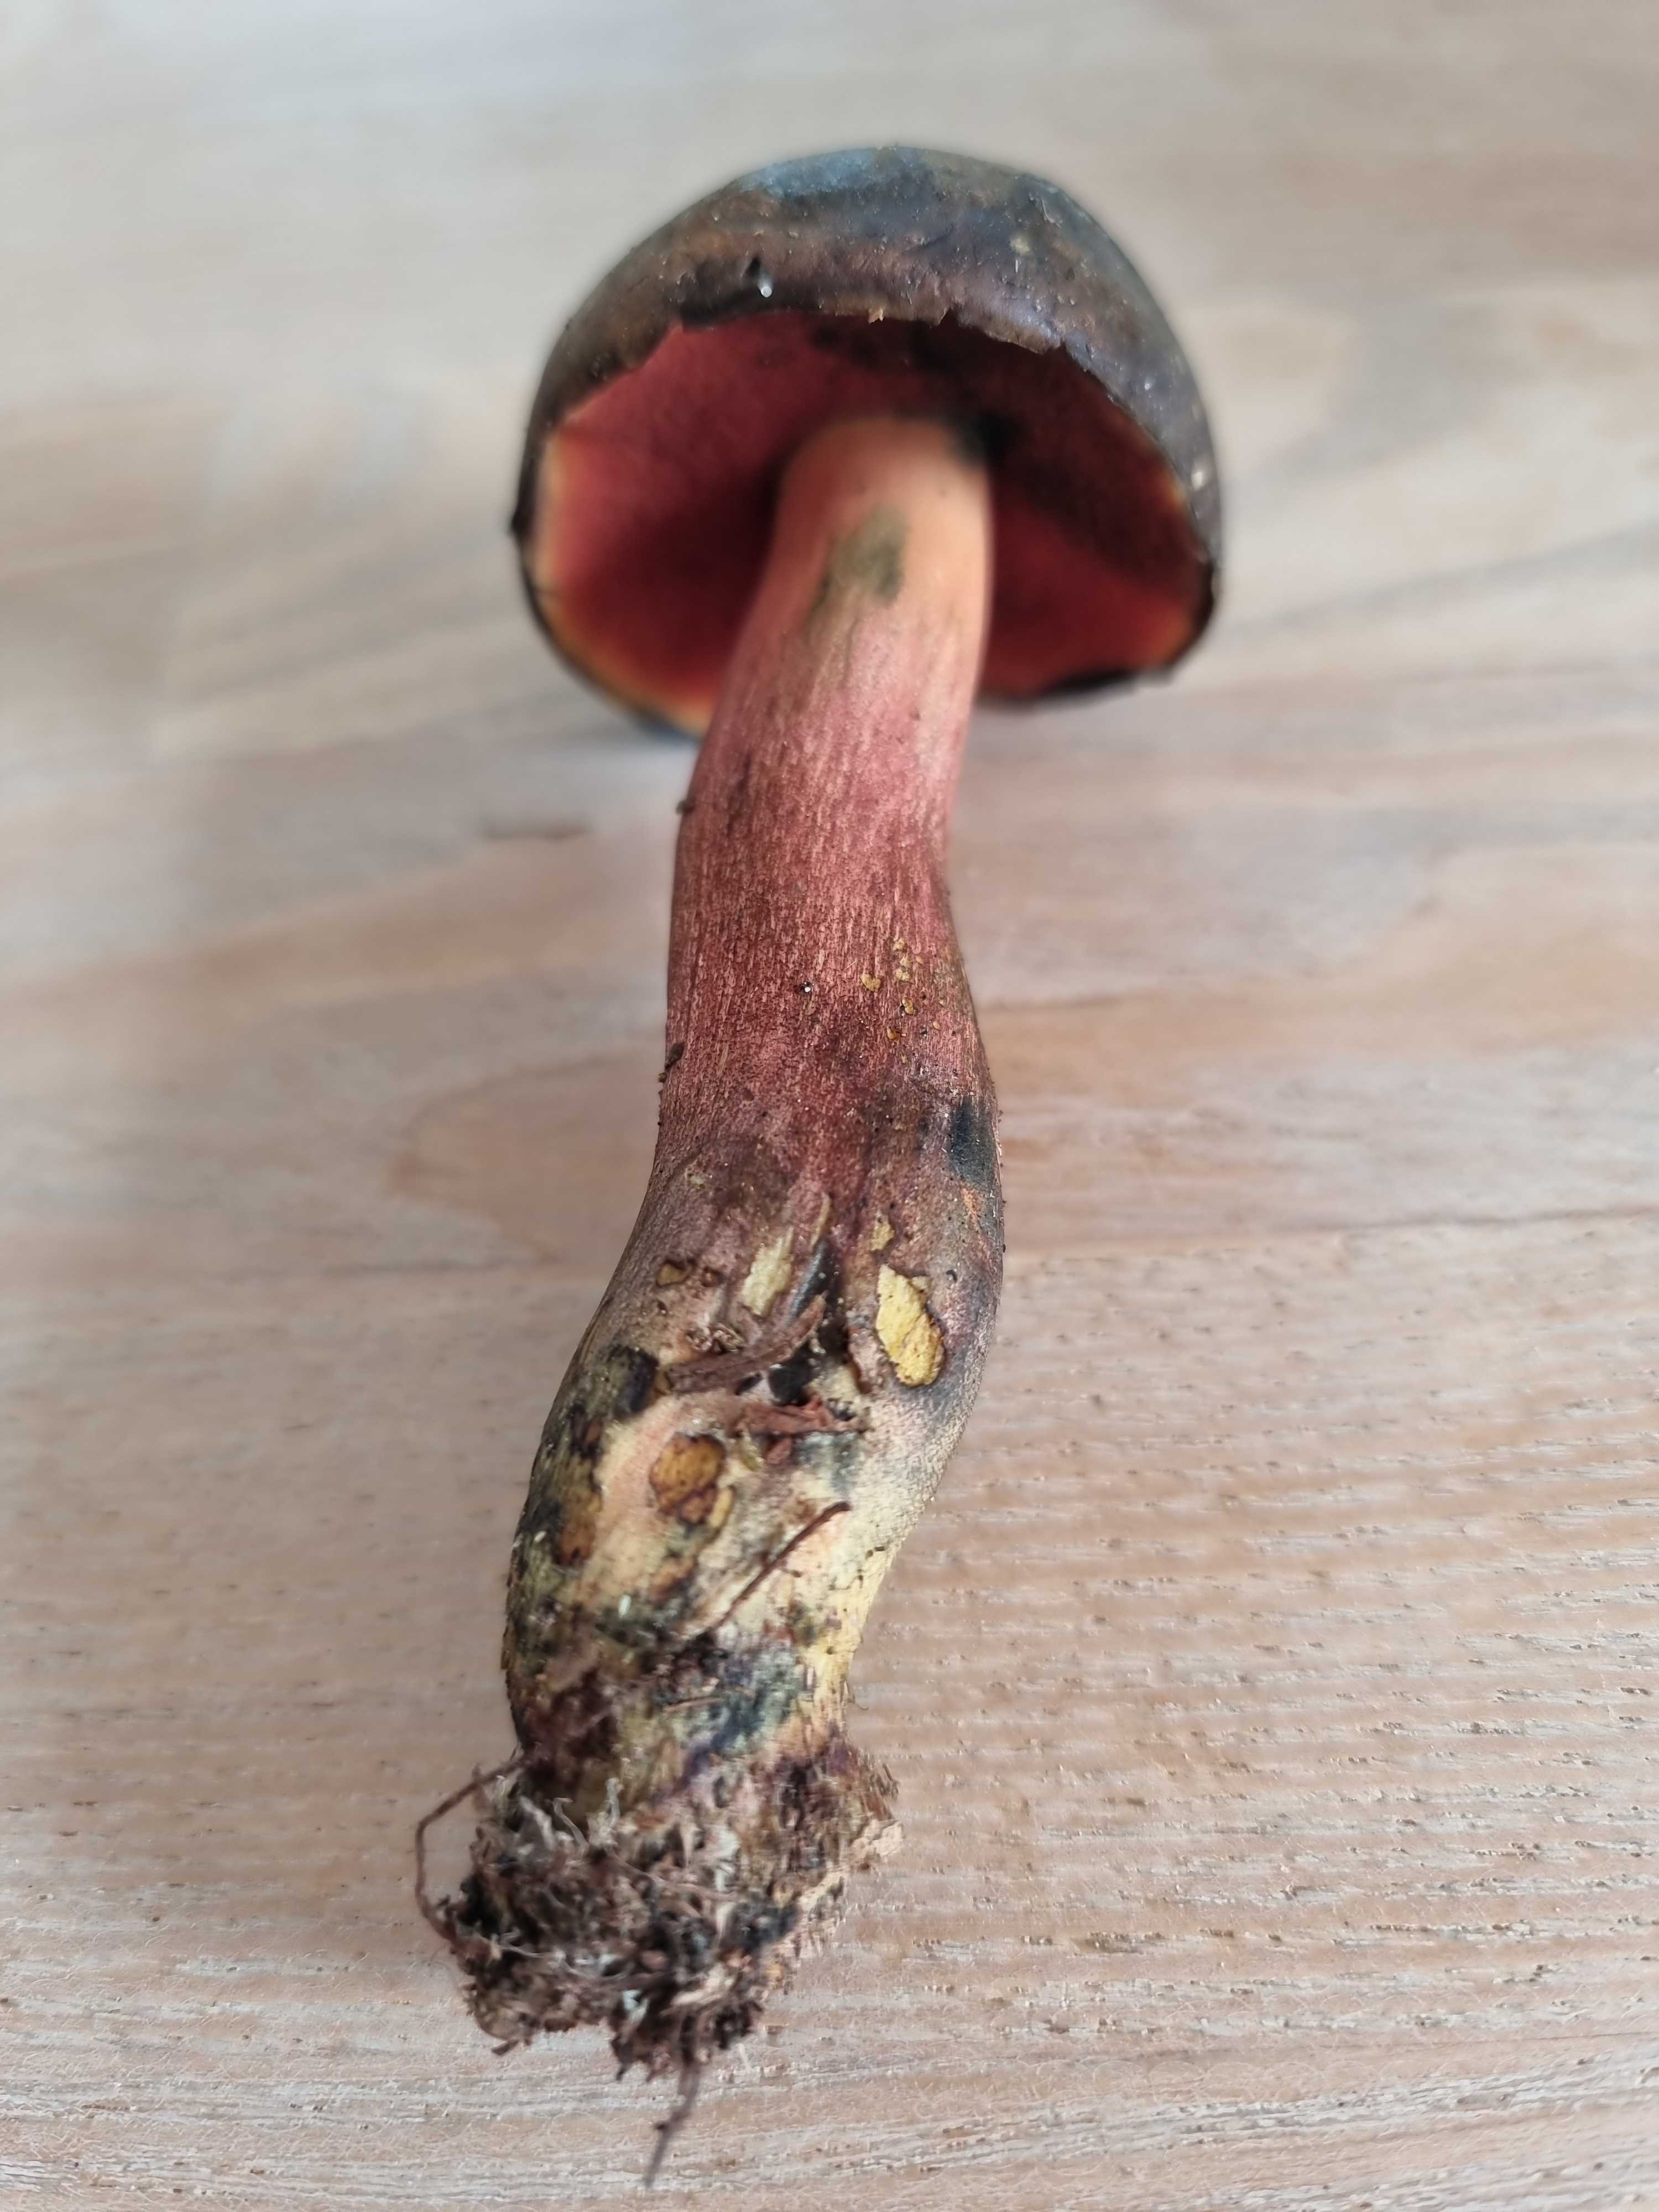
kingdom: Fungi
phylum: Basidiomycota
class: Agaricomycetes
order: Boletales
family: Boletaceae
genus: Neoboletus
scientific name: Neoboletus erythropus
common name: punktstokket indigorørhat
